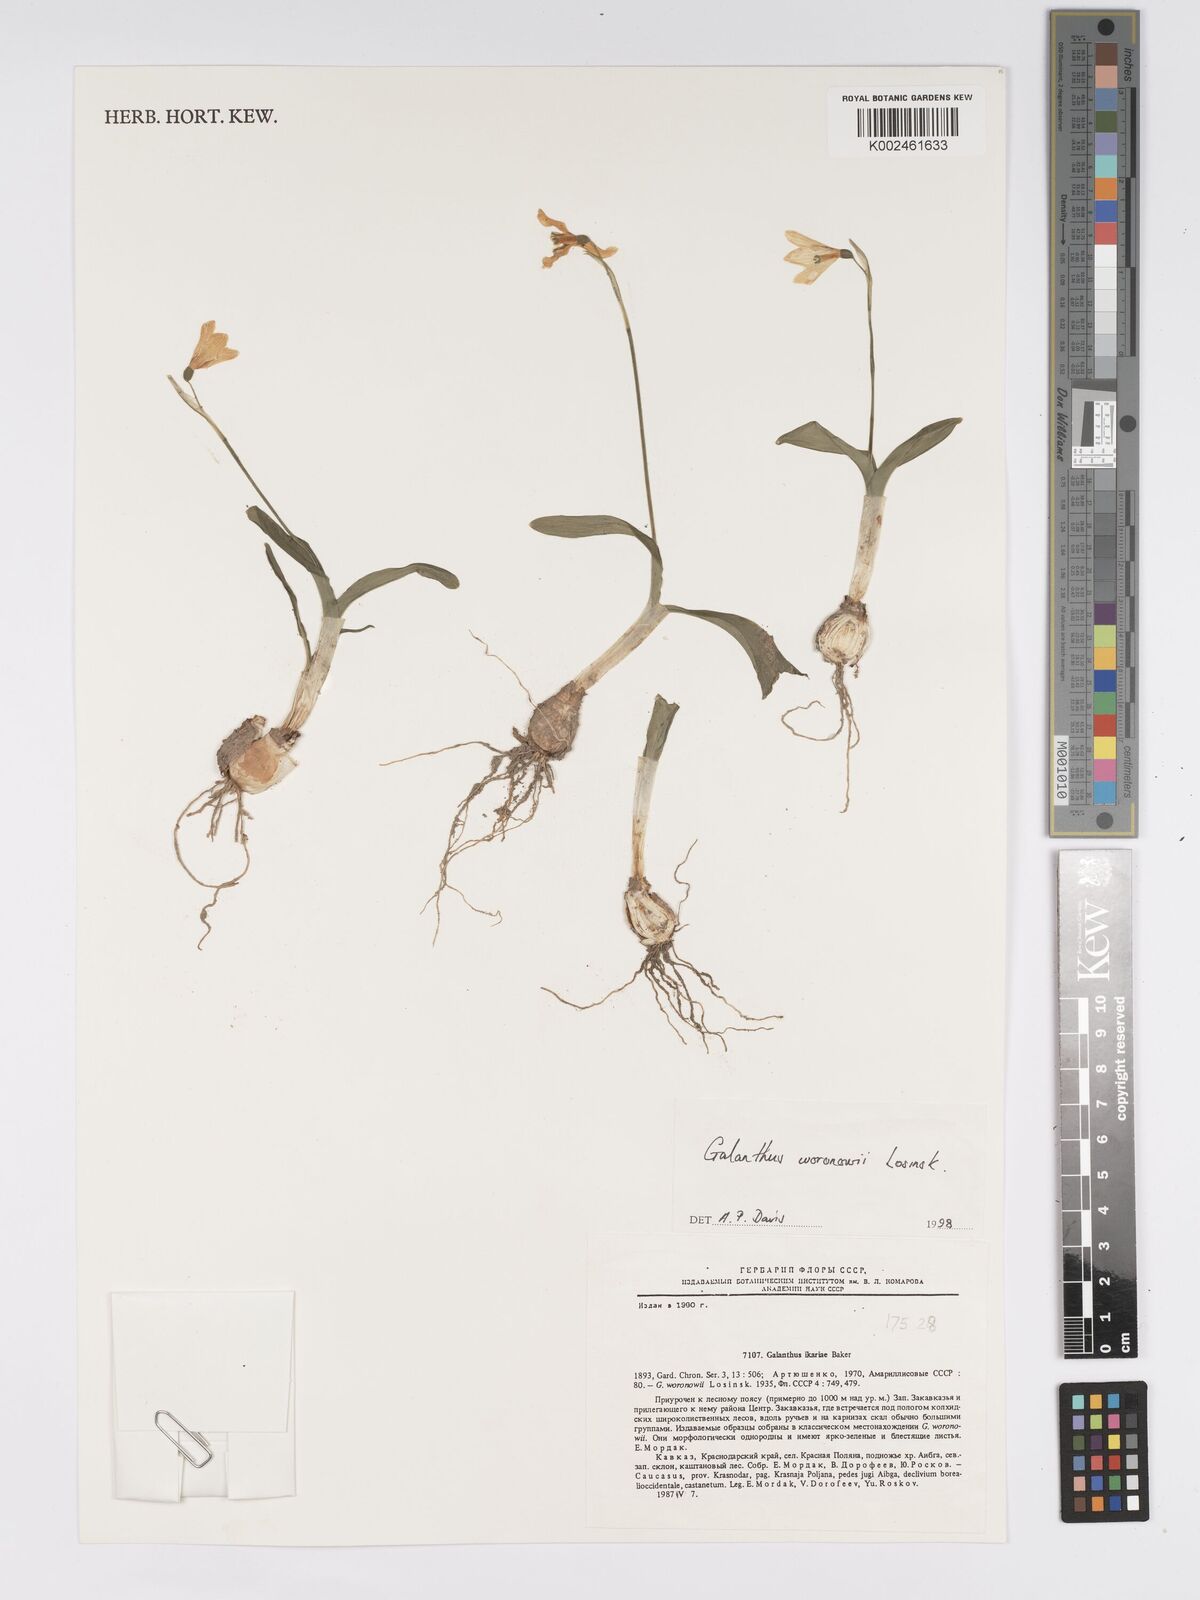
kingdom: Plantae
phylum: Tracheophyta
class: Liliopsida
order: Asparagales
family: Amaryllidaceae
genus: Galanthus
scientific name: Galanthus woronowii
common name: Green snowdrop
